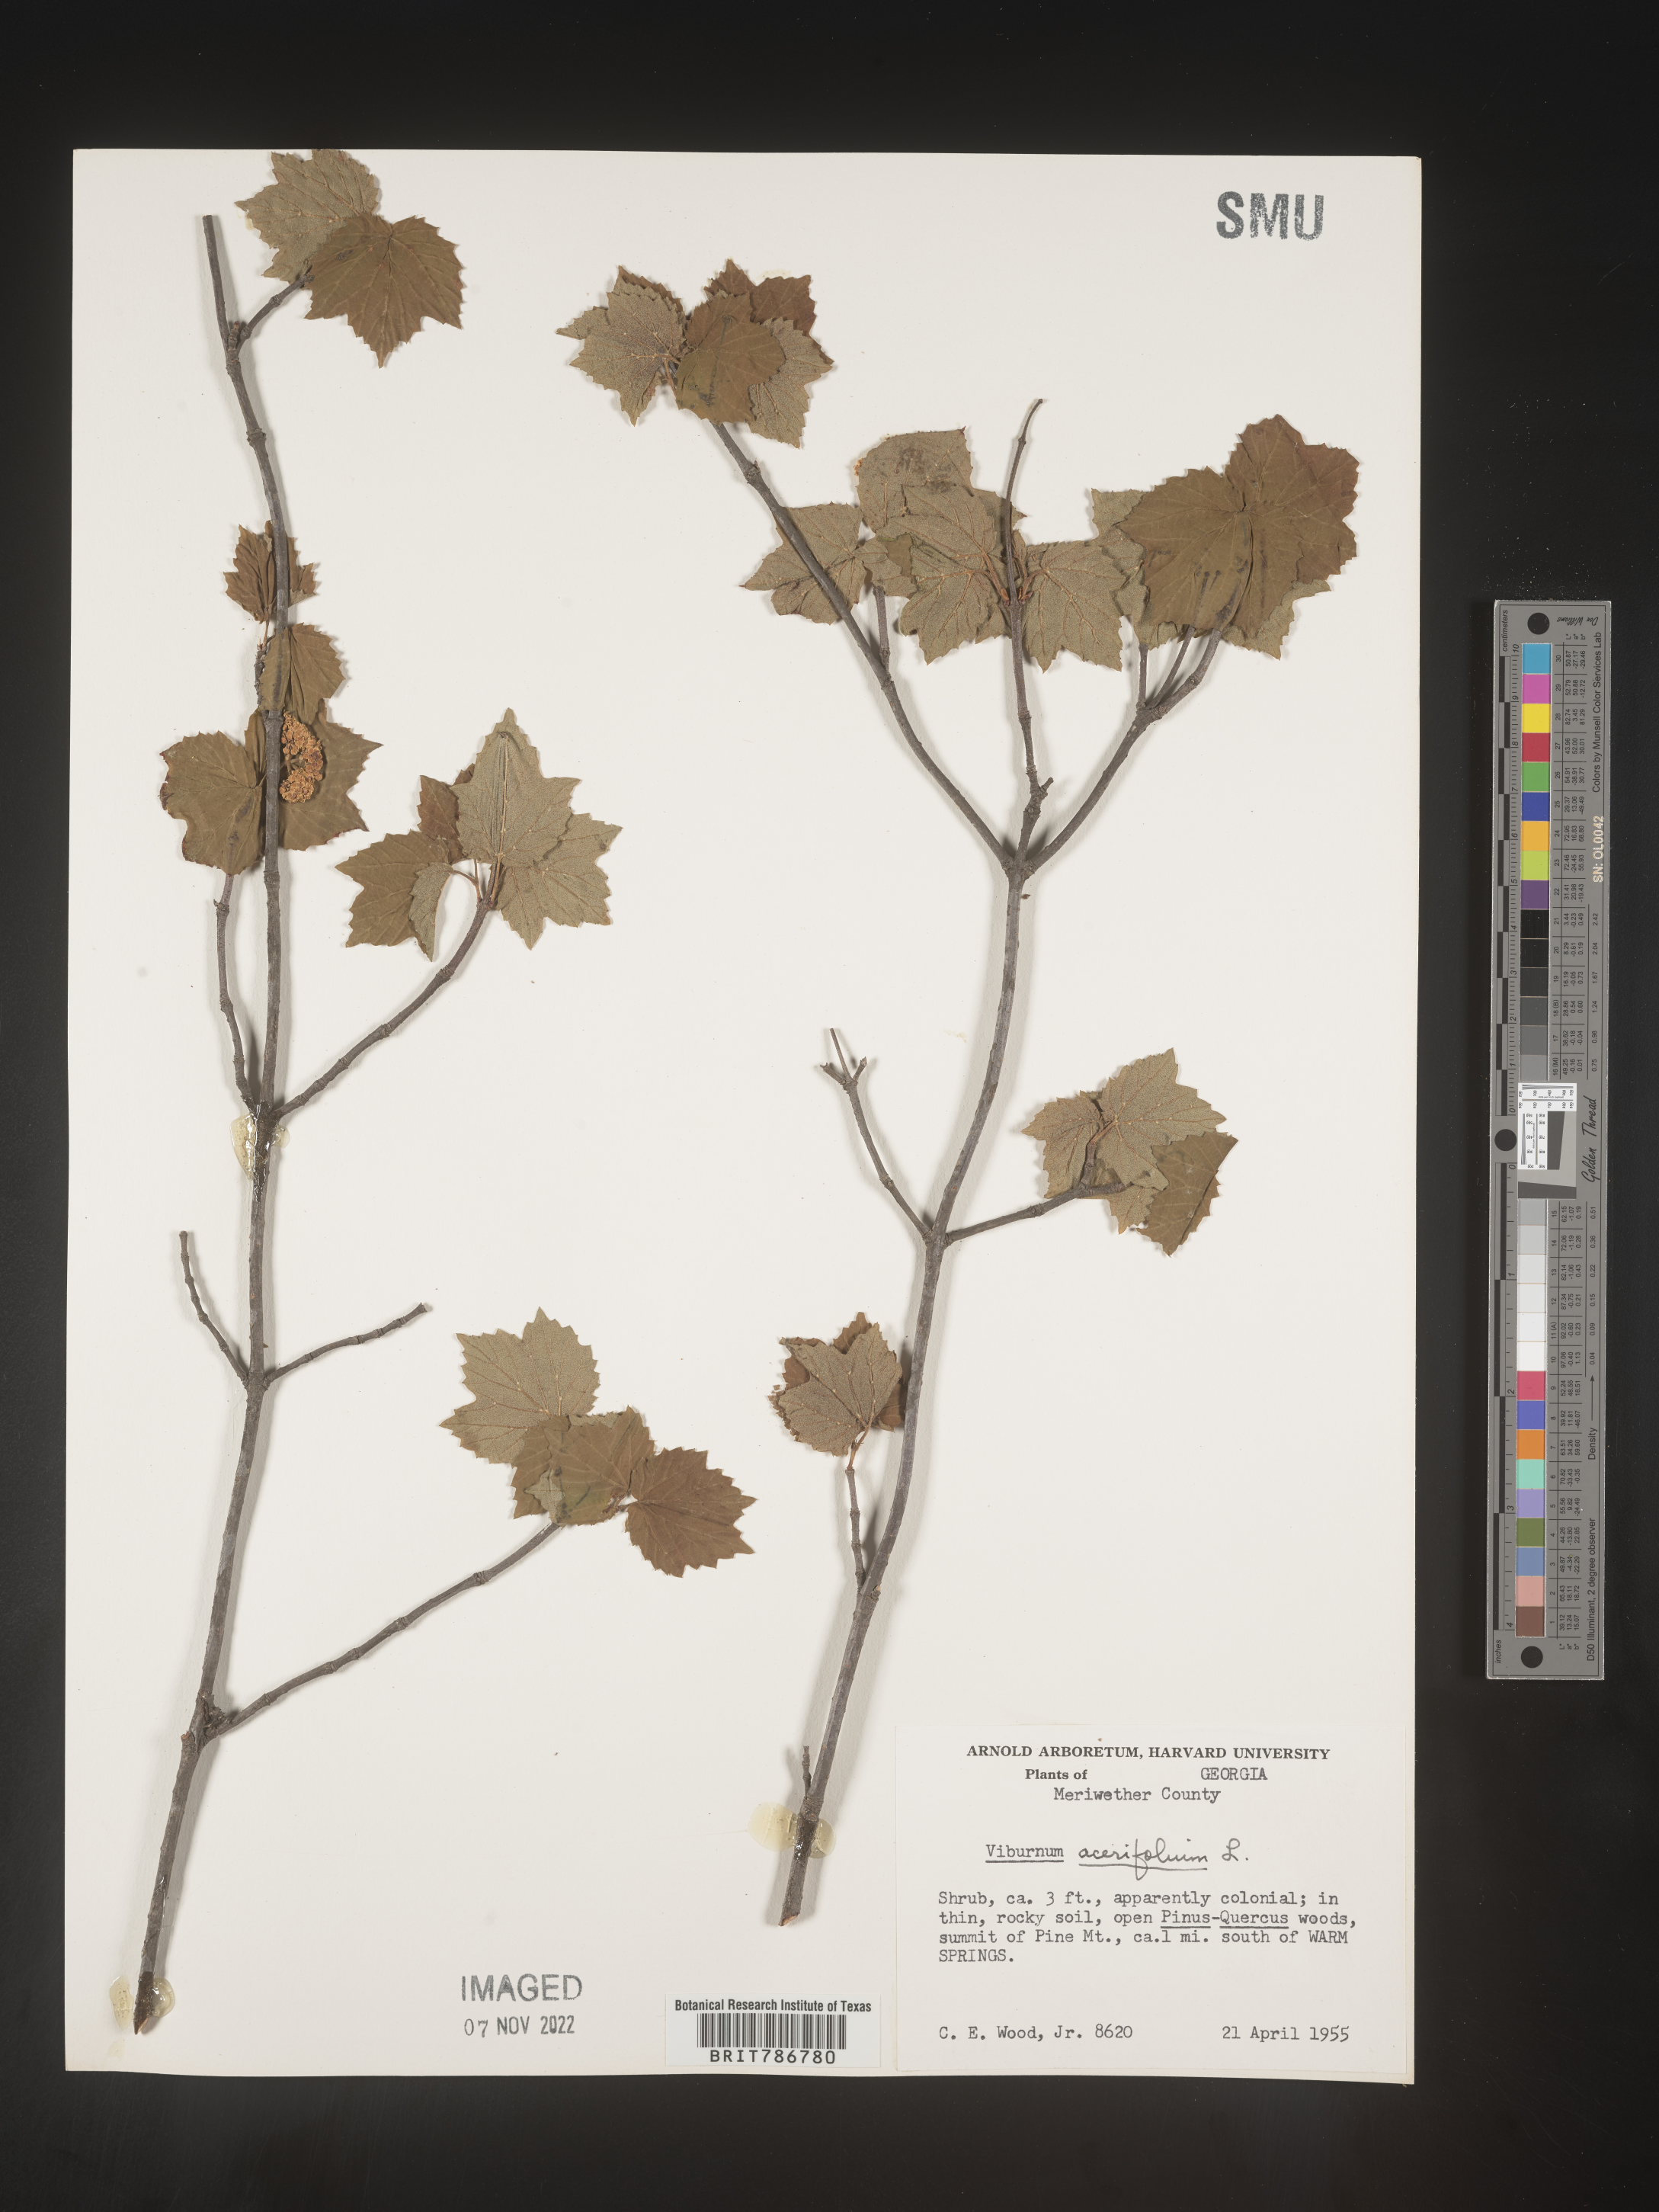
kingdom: Plantae
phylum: Tracheophyta
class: Magnoliopsida
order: Dipsacales
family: Viburnaceae
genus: Viburnum
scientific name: Viburnum acerifolium
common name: Dockmackie
